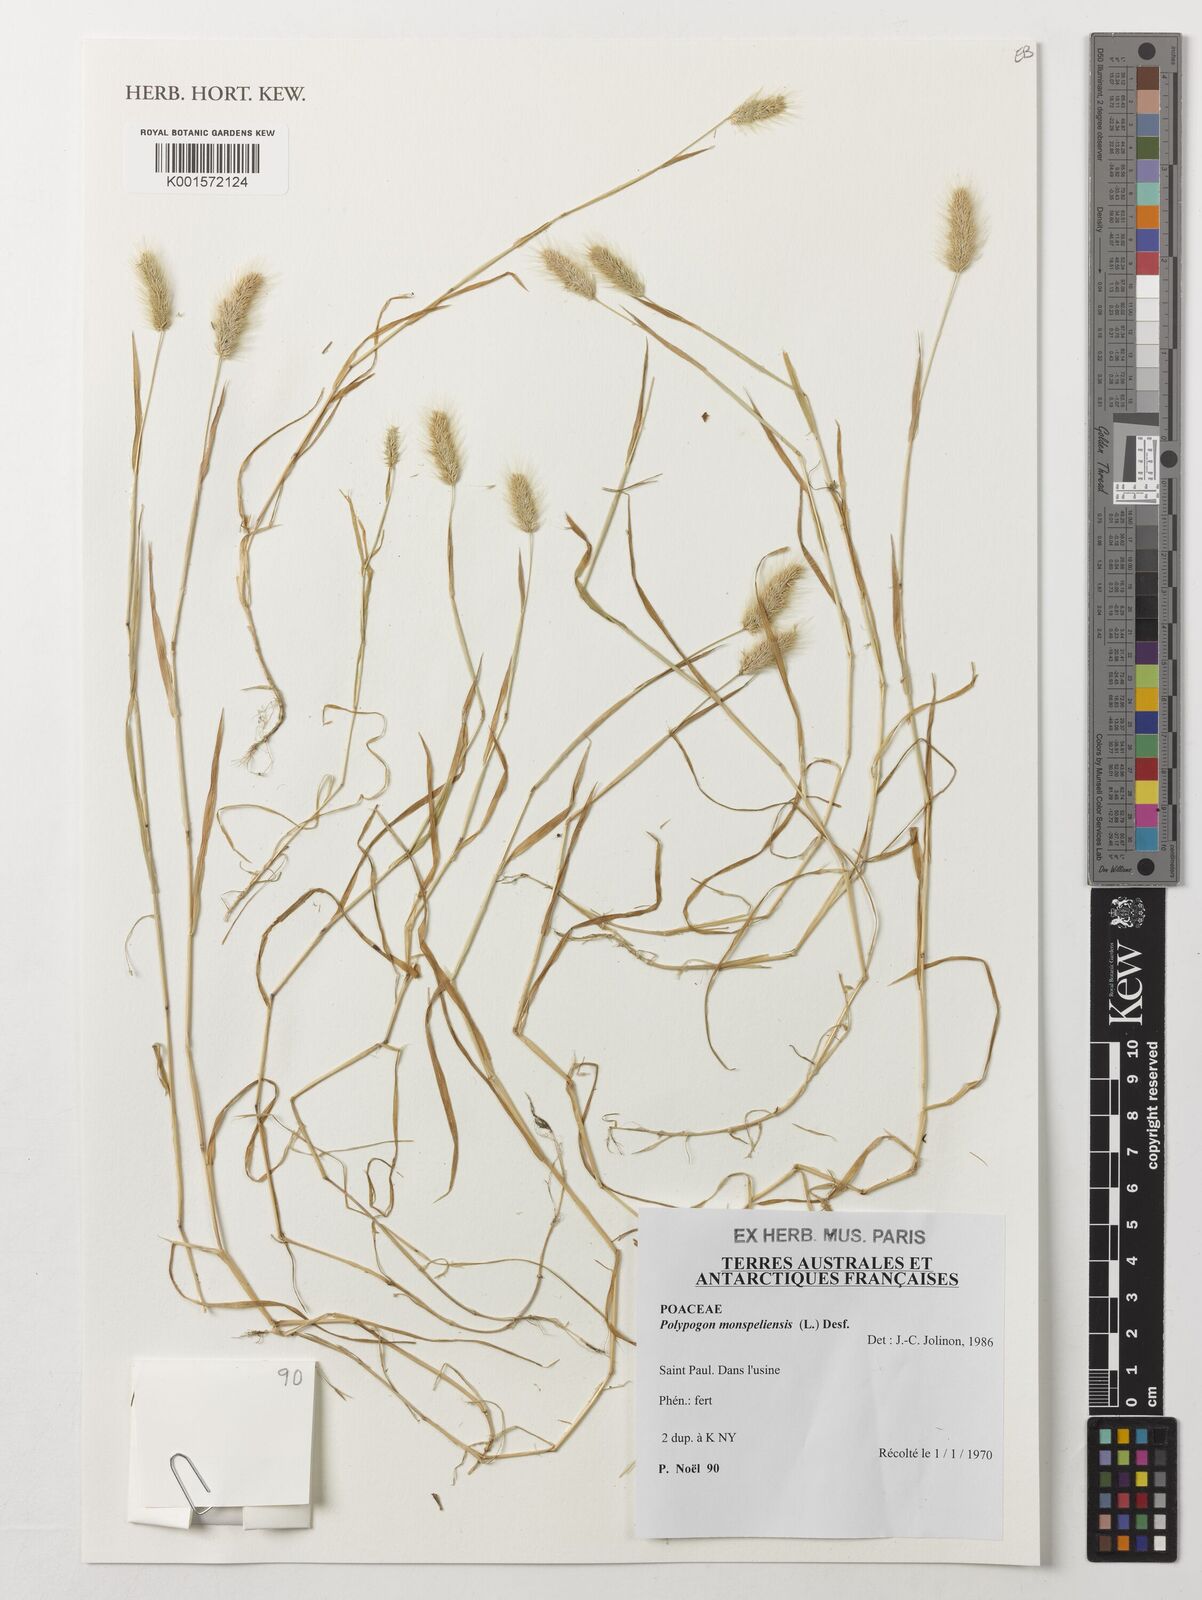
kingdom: Plantae
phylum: Tracheophyta
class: Liliopsida
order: Poales
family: Poaceae
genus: Polypogon
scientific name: Polypogon monspeliensis
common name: Annual rabbitsfoot grass
